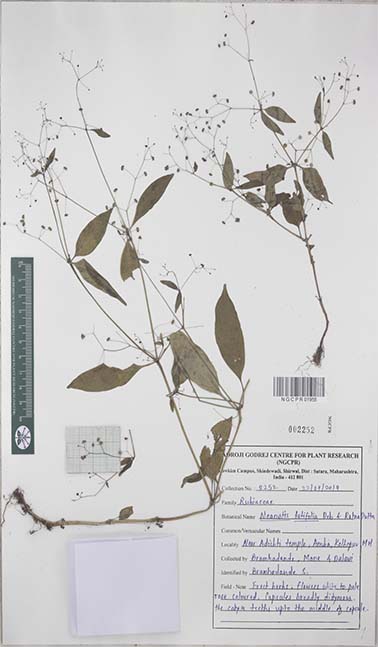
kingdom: Plantae
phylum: Tracheophyta
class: Magnoliopsida
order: Gentianales
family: Rubiaceae
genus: Neanotis
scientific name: Neanotis latifolia
